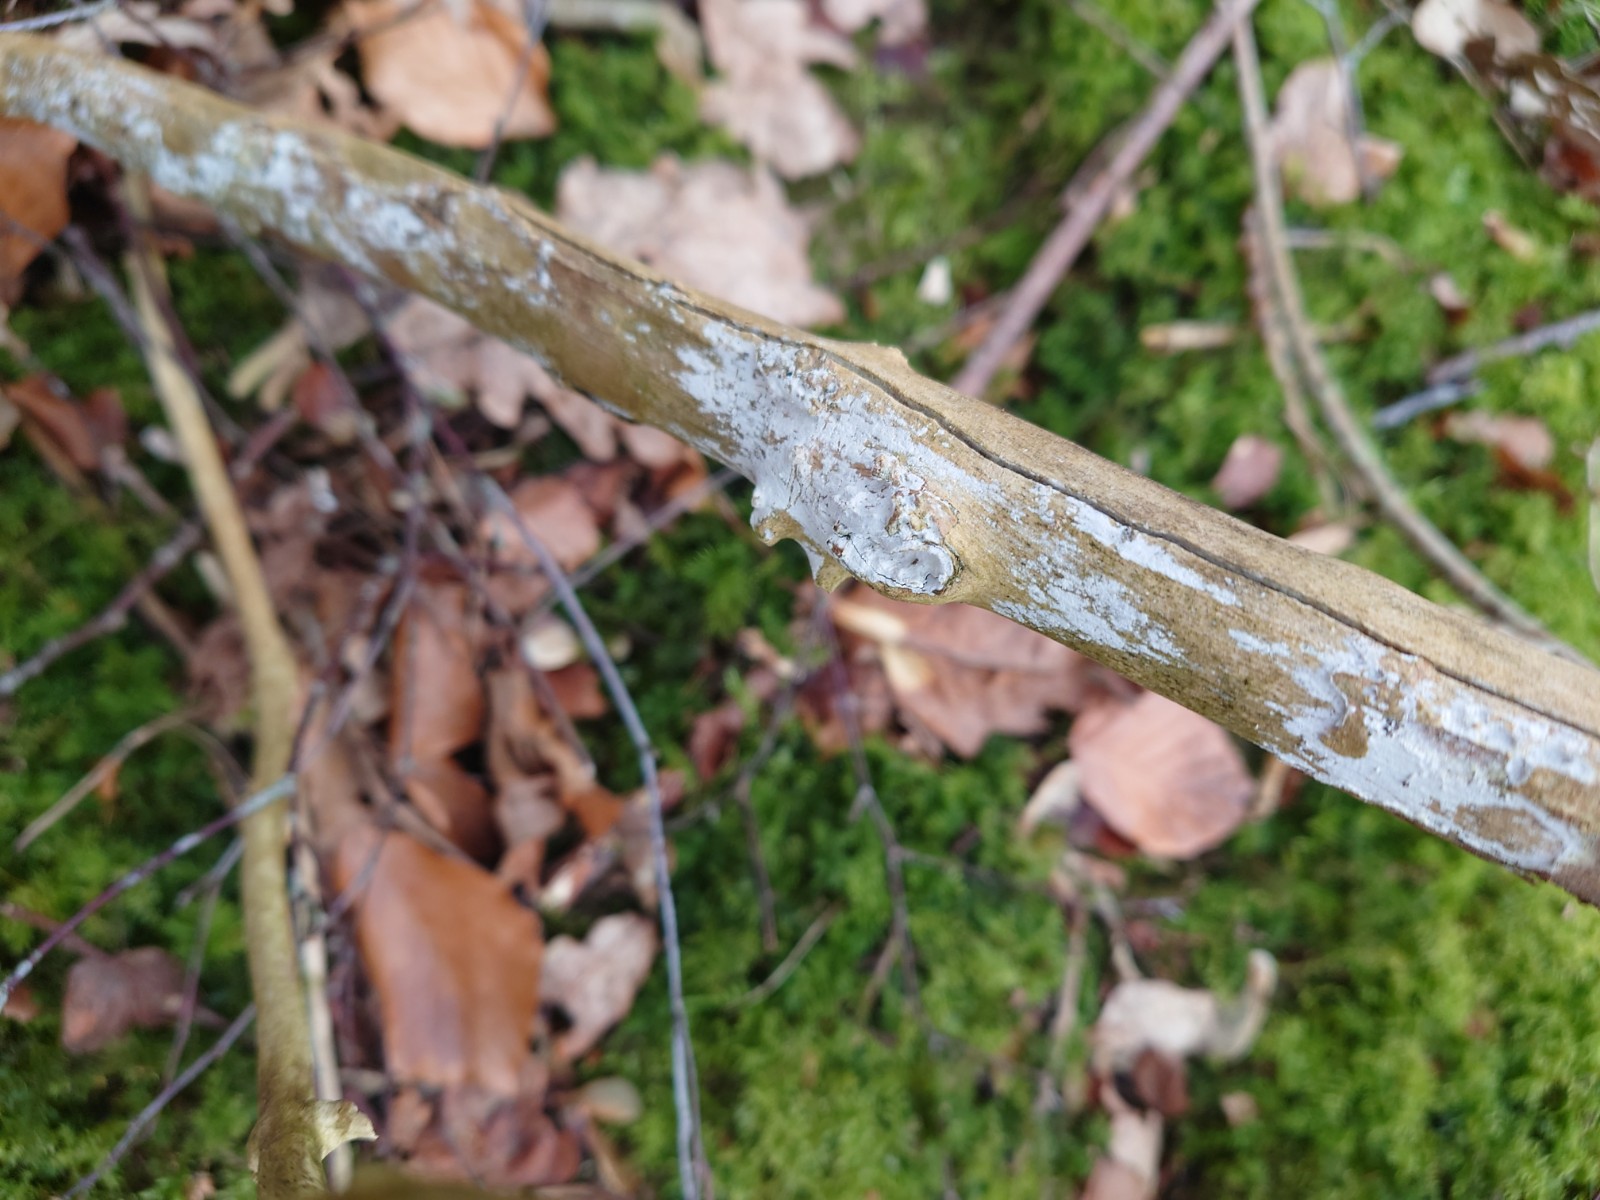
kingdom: Fungi
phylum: Basidiomycota
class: Agaricomycetes
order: Corticiales
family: Corticiaceae
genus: Lyomyces
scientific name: Lyomyces sambuci
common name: almindelig hyldehinde
